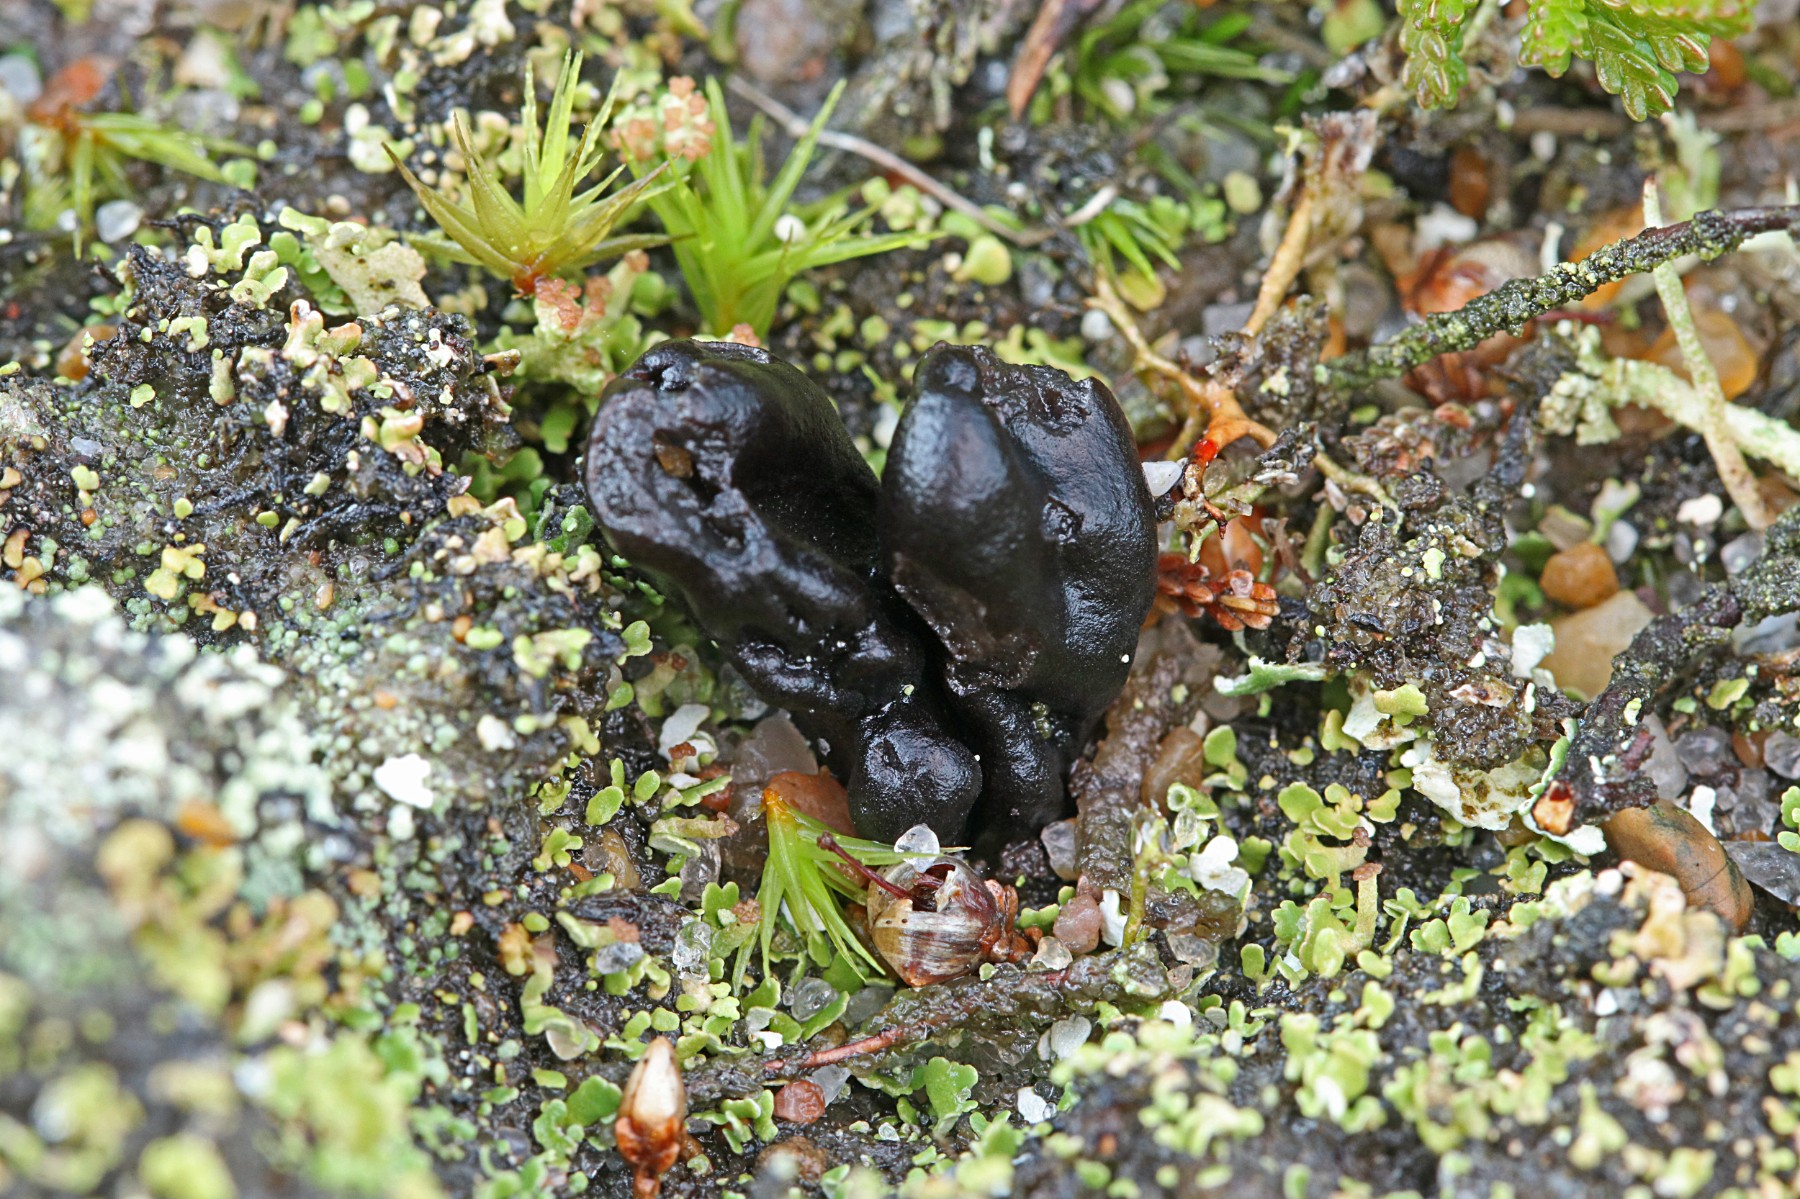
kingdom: Fungi
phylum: Ascomycota
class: Geoglossomycetes
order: Geoglossales
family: Geoglossaceae
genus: Sabuloglossum
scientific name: Sabuloglossum arenarium
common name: klit-jordtunge
